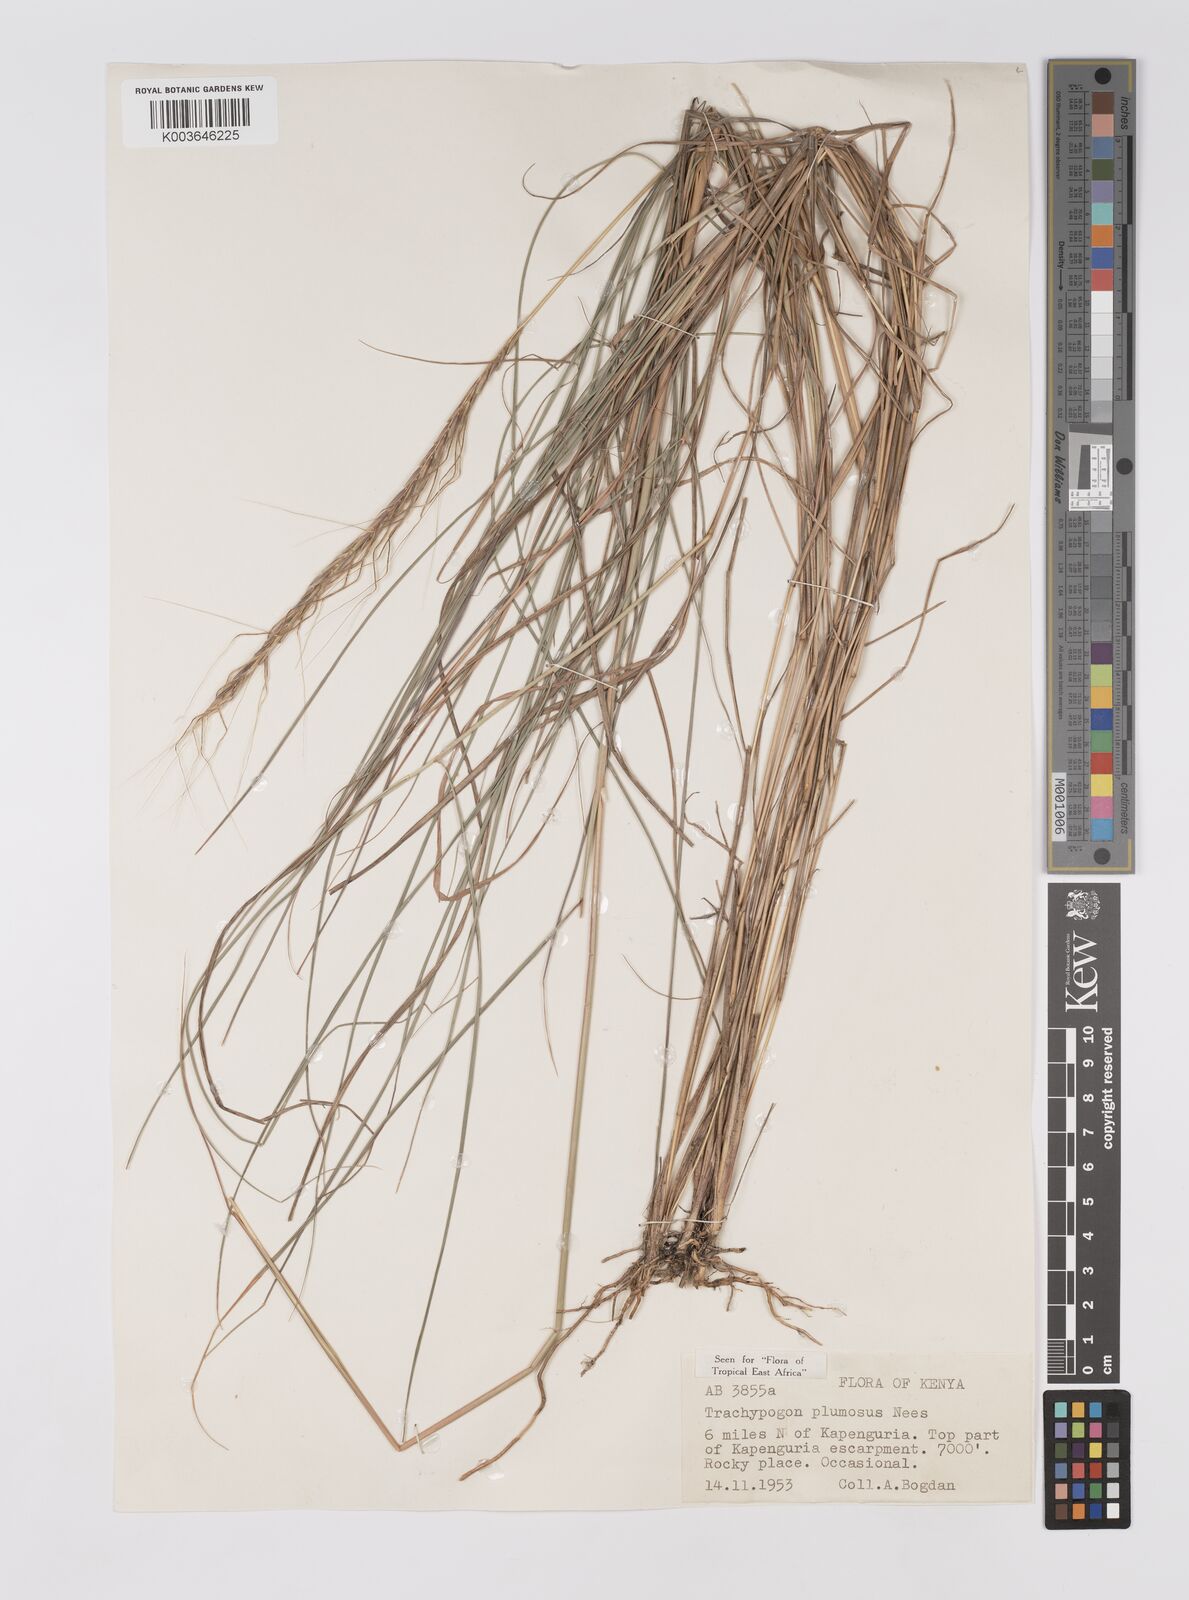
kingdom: Plantae
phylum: Tracheophyta
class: Liliopsida
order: Poales
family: Poaceae
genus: Trachypogon
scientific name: Trachypogon spicatus
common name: Crinkle-awn
